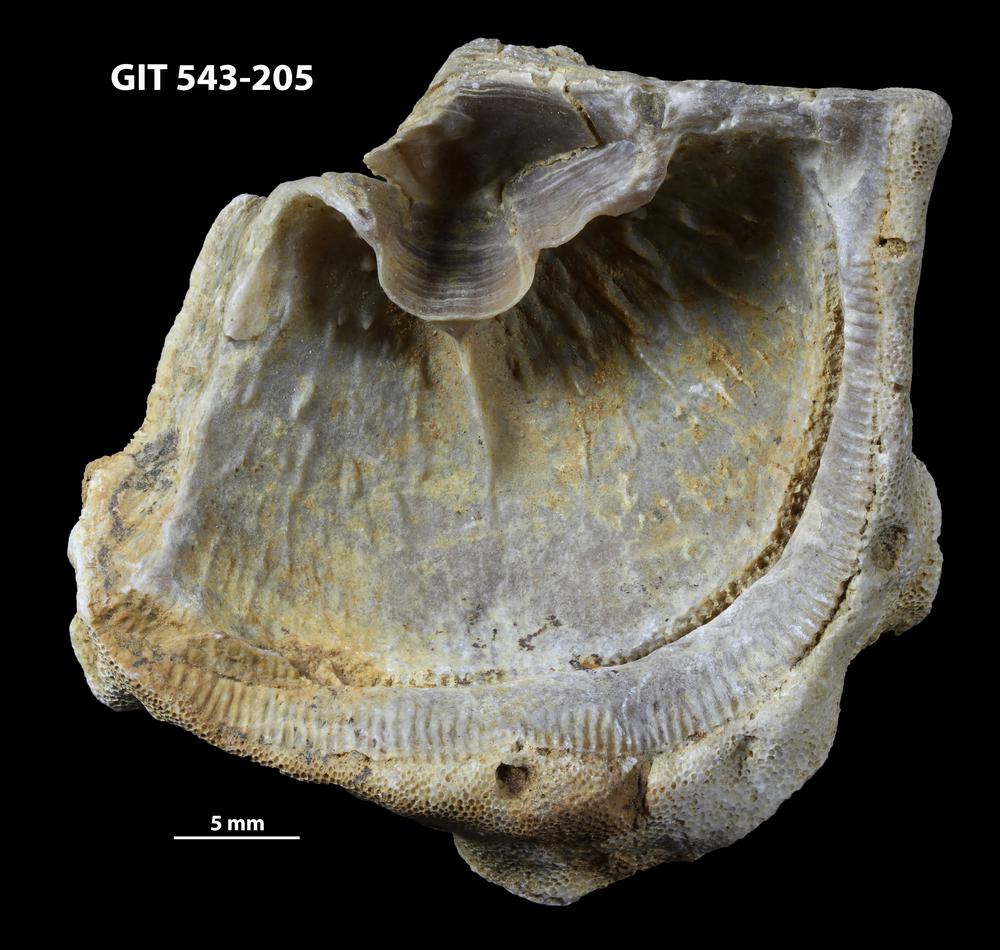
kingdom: Animalia
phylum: Brachiopoda
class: Rhynchonellata
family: Clitambonitidae
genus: Clinambon
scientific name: Clinambon anomalus
